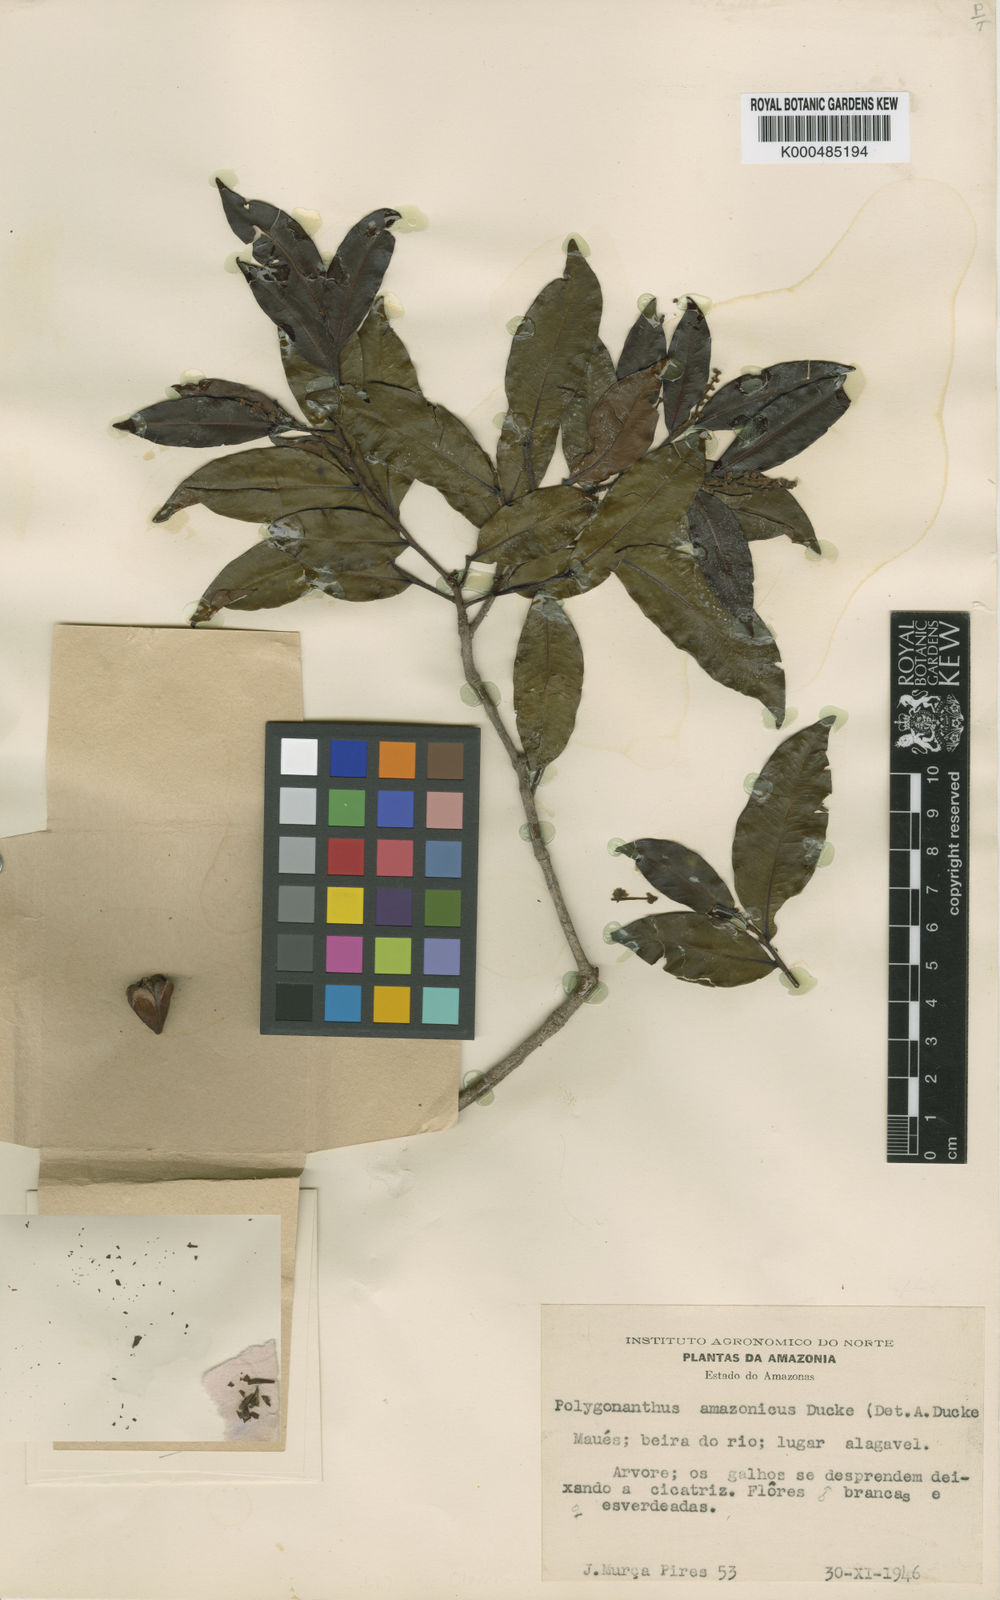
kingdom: Plantae
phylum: Tracheophyta
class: Magnoliopsida
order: Cucurbitales
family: Anisophylleaceae
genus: Polygonanthus
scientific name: Polygonanthus amazonicus
